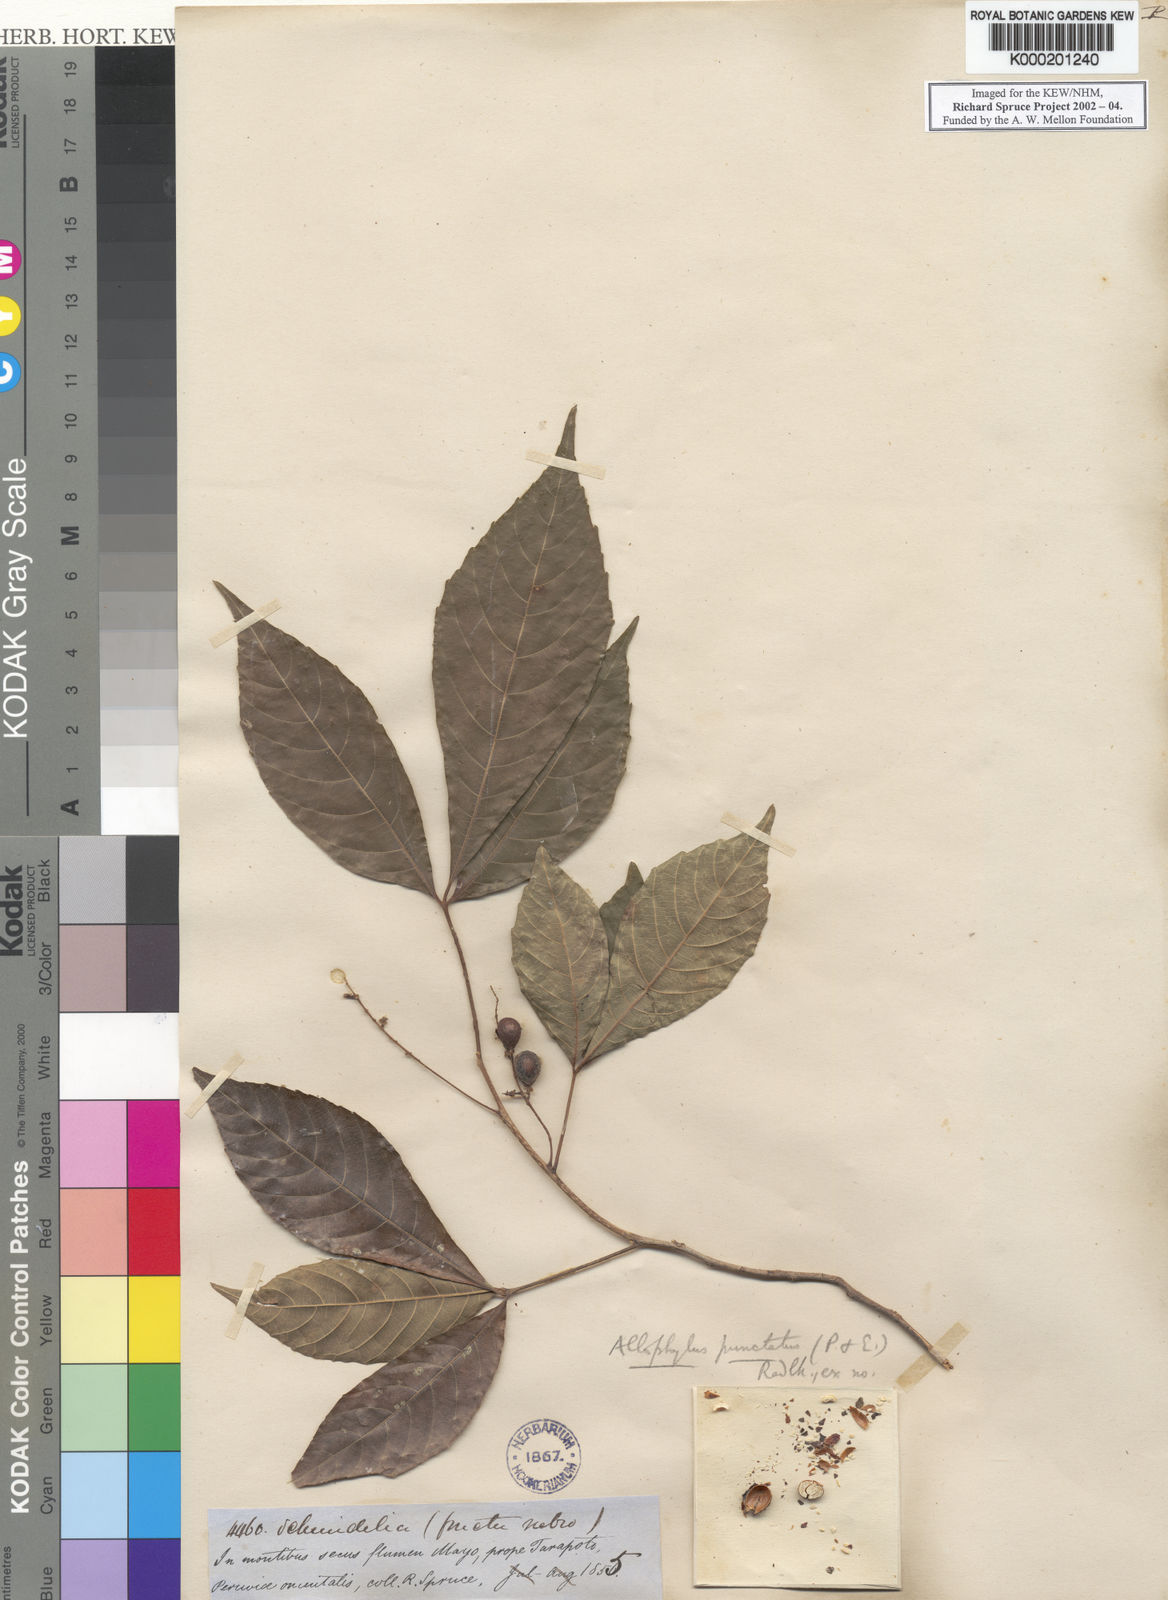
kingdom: Plantae
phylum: Tracheophyta
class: Magnoliopsida
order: Sapindales
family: Sapindaceae
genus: Allophylus
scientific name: Allophylus punctatus
